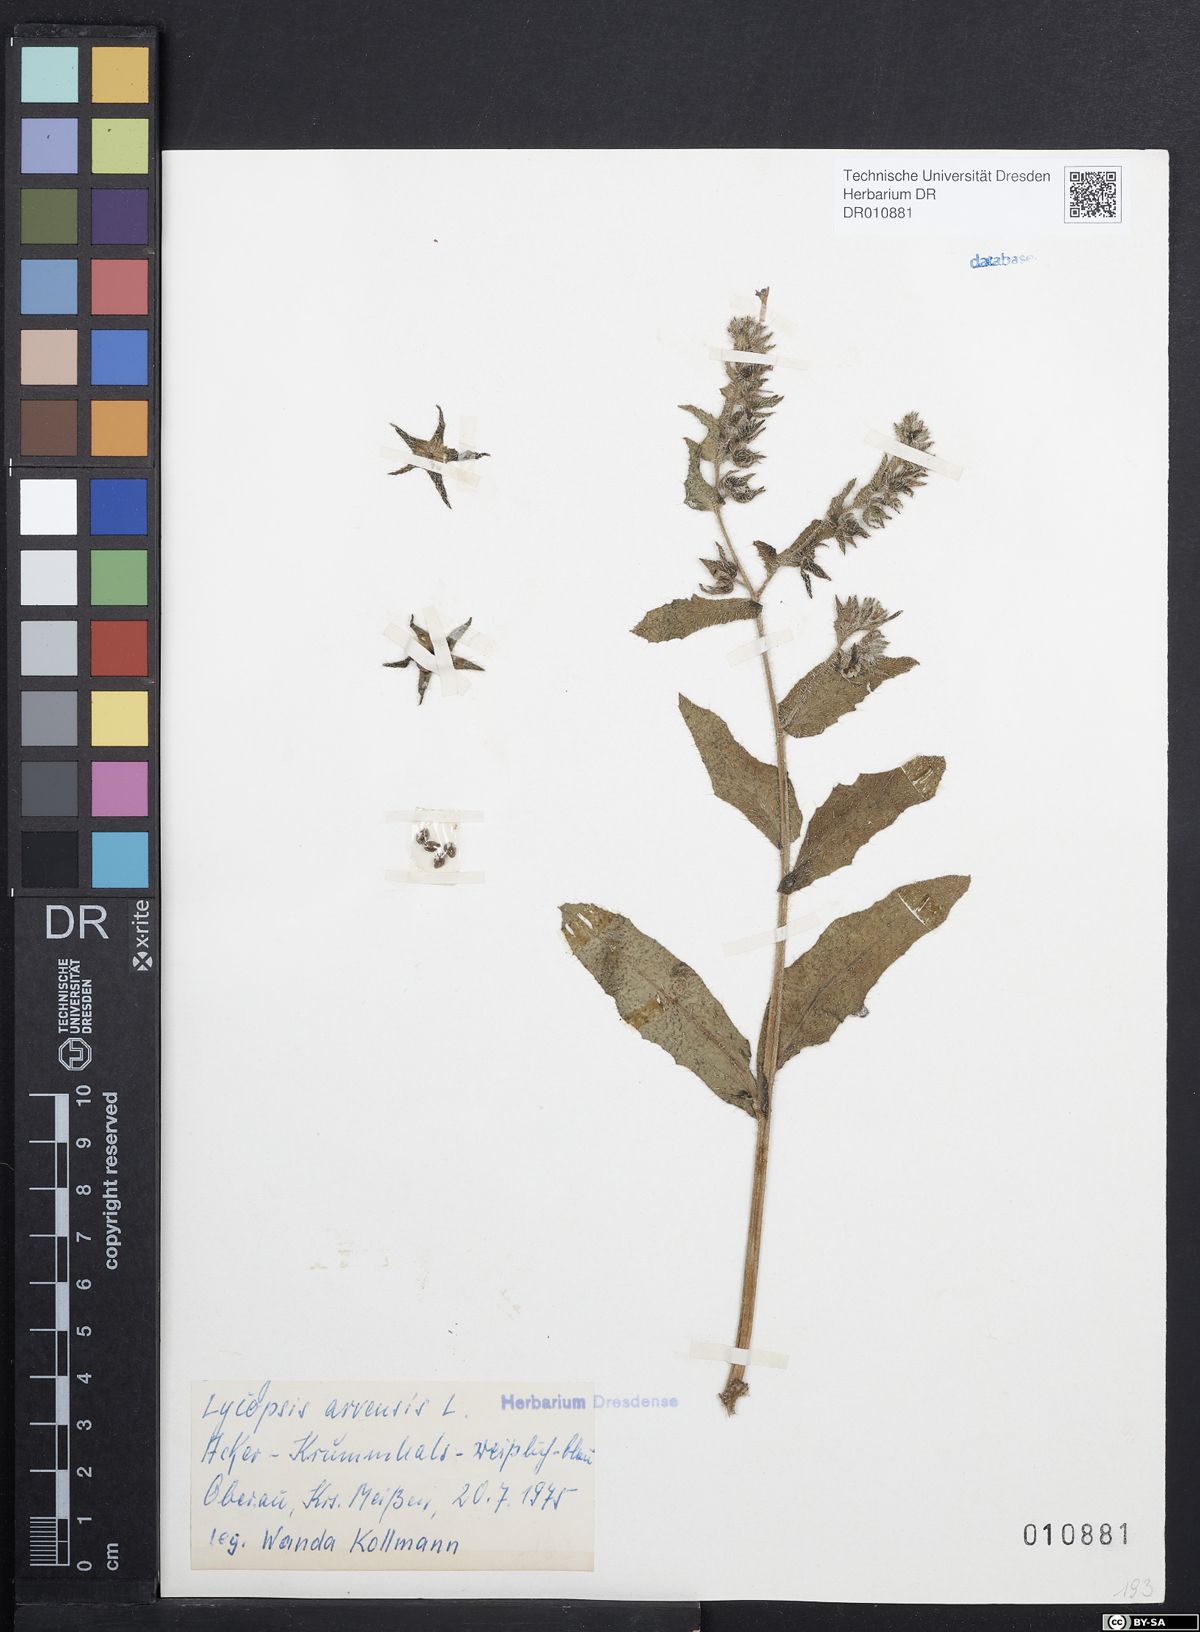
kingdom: Plantae
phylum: Tracheophyta
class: Magnoliopsida
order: Boraginales
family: Boraginaceae
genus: Lycopsis
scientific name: Lycopsis arvensis
